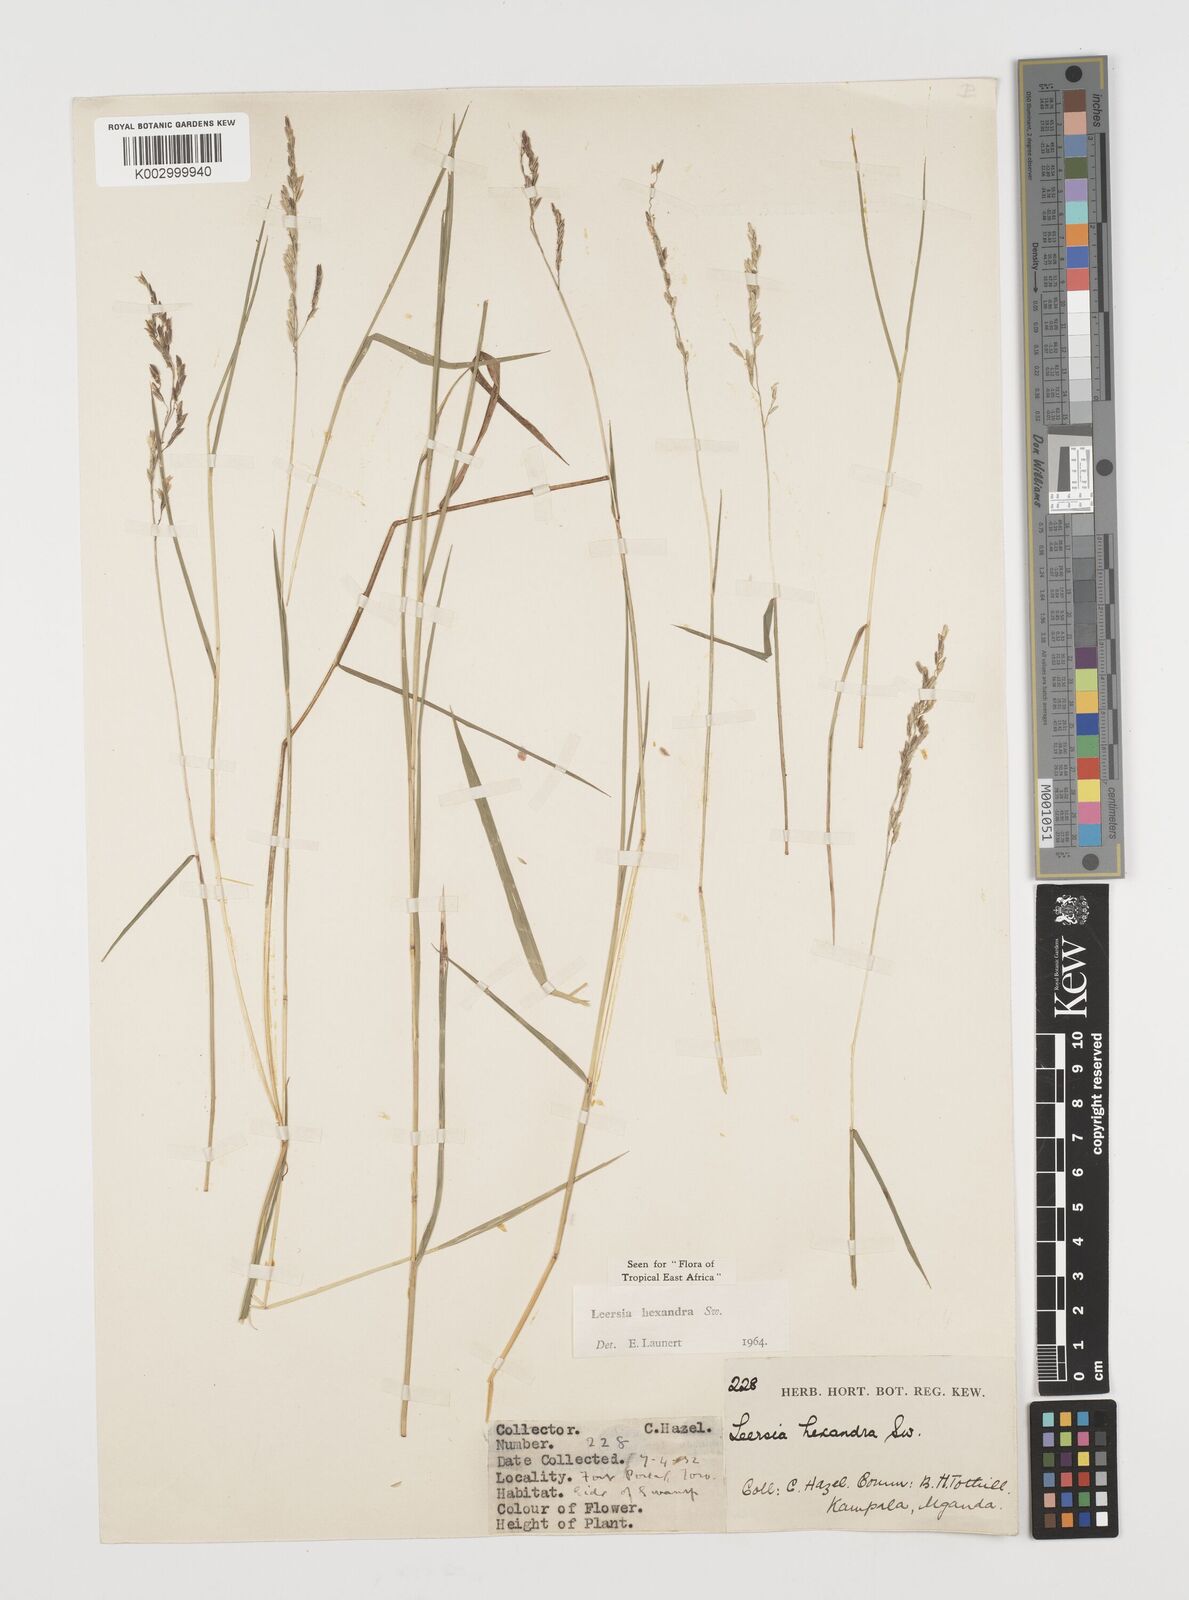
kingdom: Plantae
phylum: Tracheophyta
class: Liliopsida
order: Poales
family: Poaceae
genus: Leersia
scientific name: Leersia hexandra
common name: Southern cut grass
